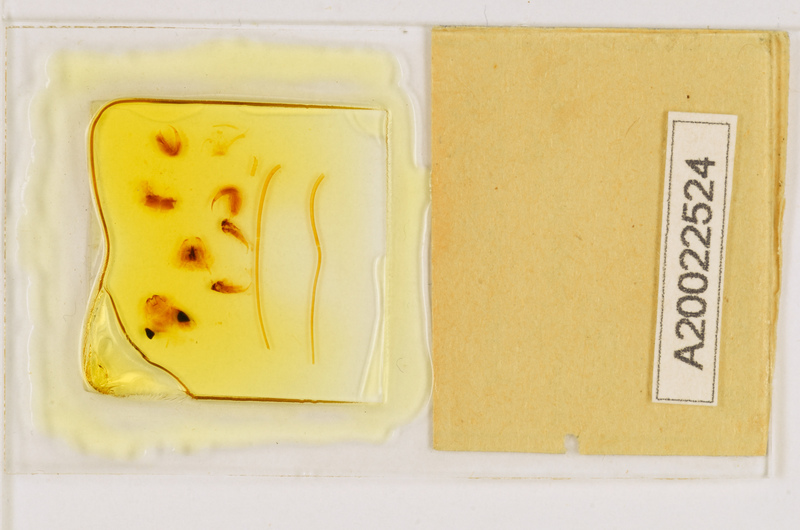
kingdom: Animalia
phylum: Arthropoda
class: Chilopoda
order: Scutigeromorpha
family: Scutigeridae
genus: Allothereua
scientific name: Allothereua
